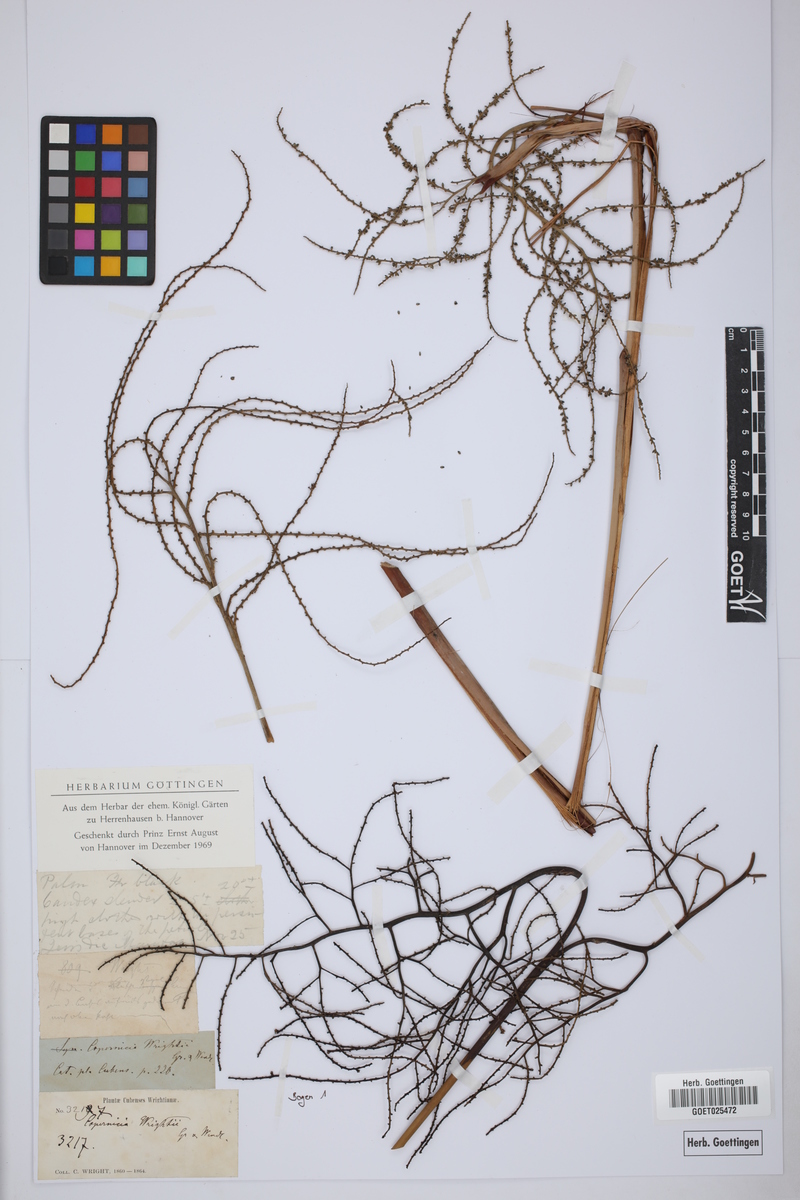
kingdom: Plantae
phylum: Tracheophyta
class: Liliopsida
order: Arecales
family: Arecaceae
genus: Acoelorraphe
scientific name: Acoelorraphe wrightii
